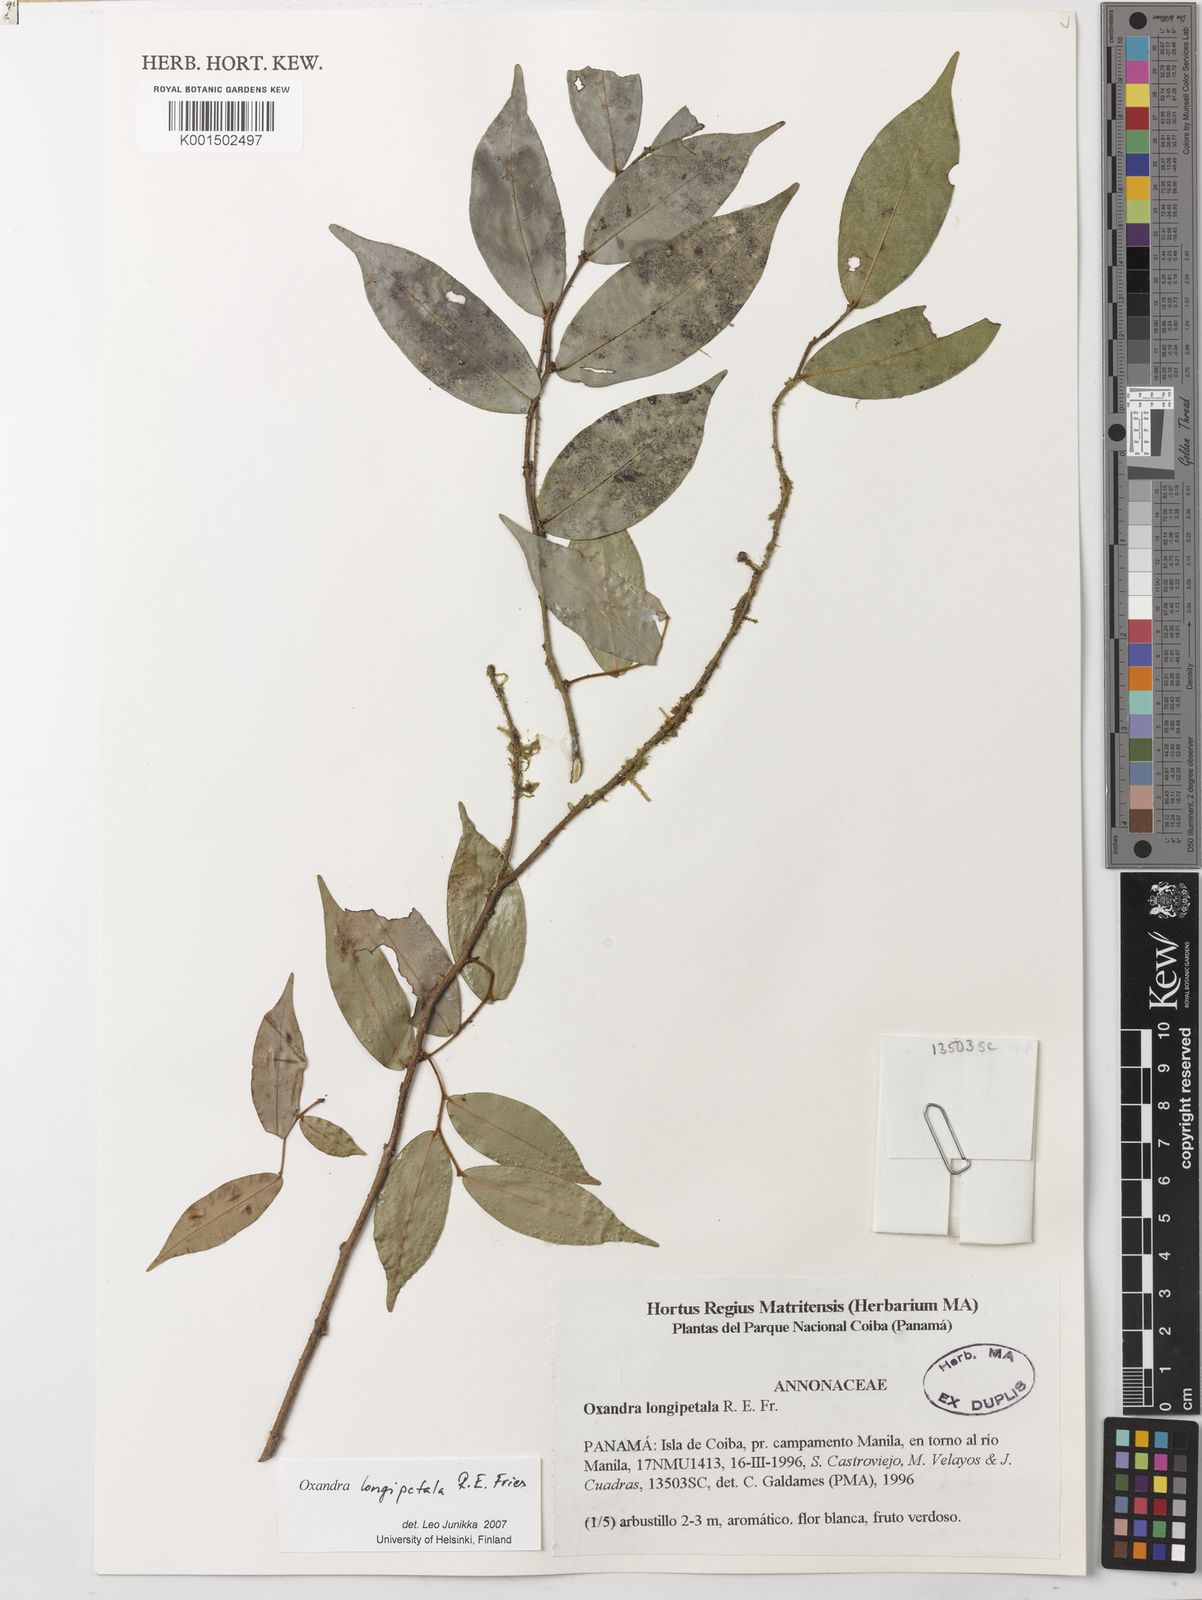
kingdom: Plantae
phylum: Tracheophyta
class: Magnoliopsida
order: Magnoliales
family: Annonaceae
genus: Oxandra
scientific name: Oxandra longipetala
